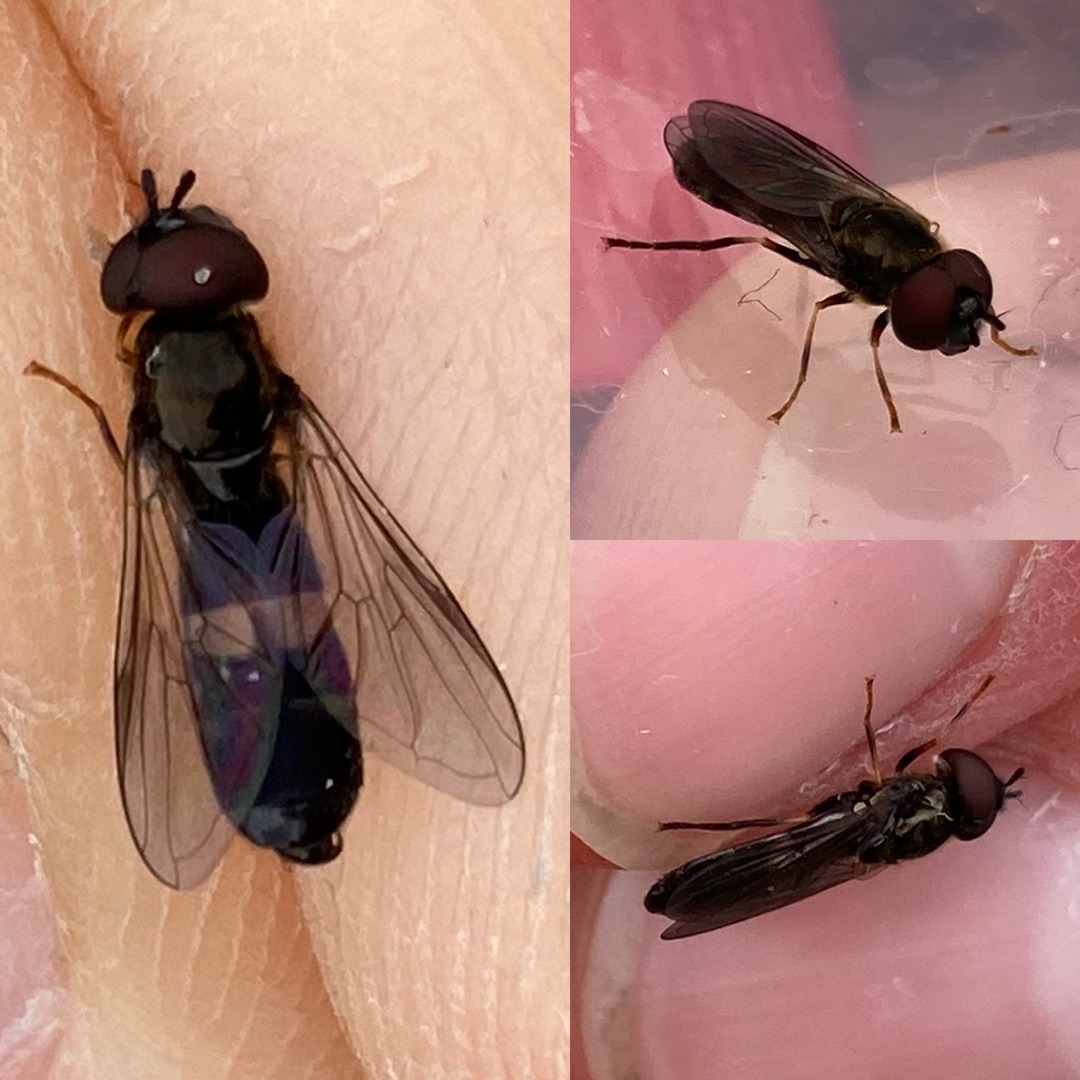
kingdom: Animalia
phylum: Arthropoda
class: Insecta
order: Diptera
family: Syrphidae
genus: Pyrophaena
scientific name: Pyrophaena rosarum
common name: Toplettet ildsvirreflue
